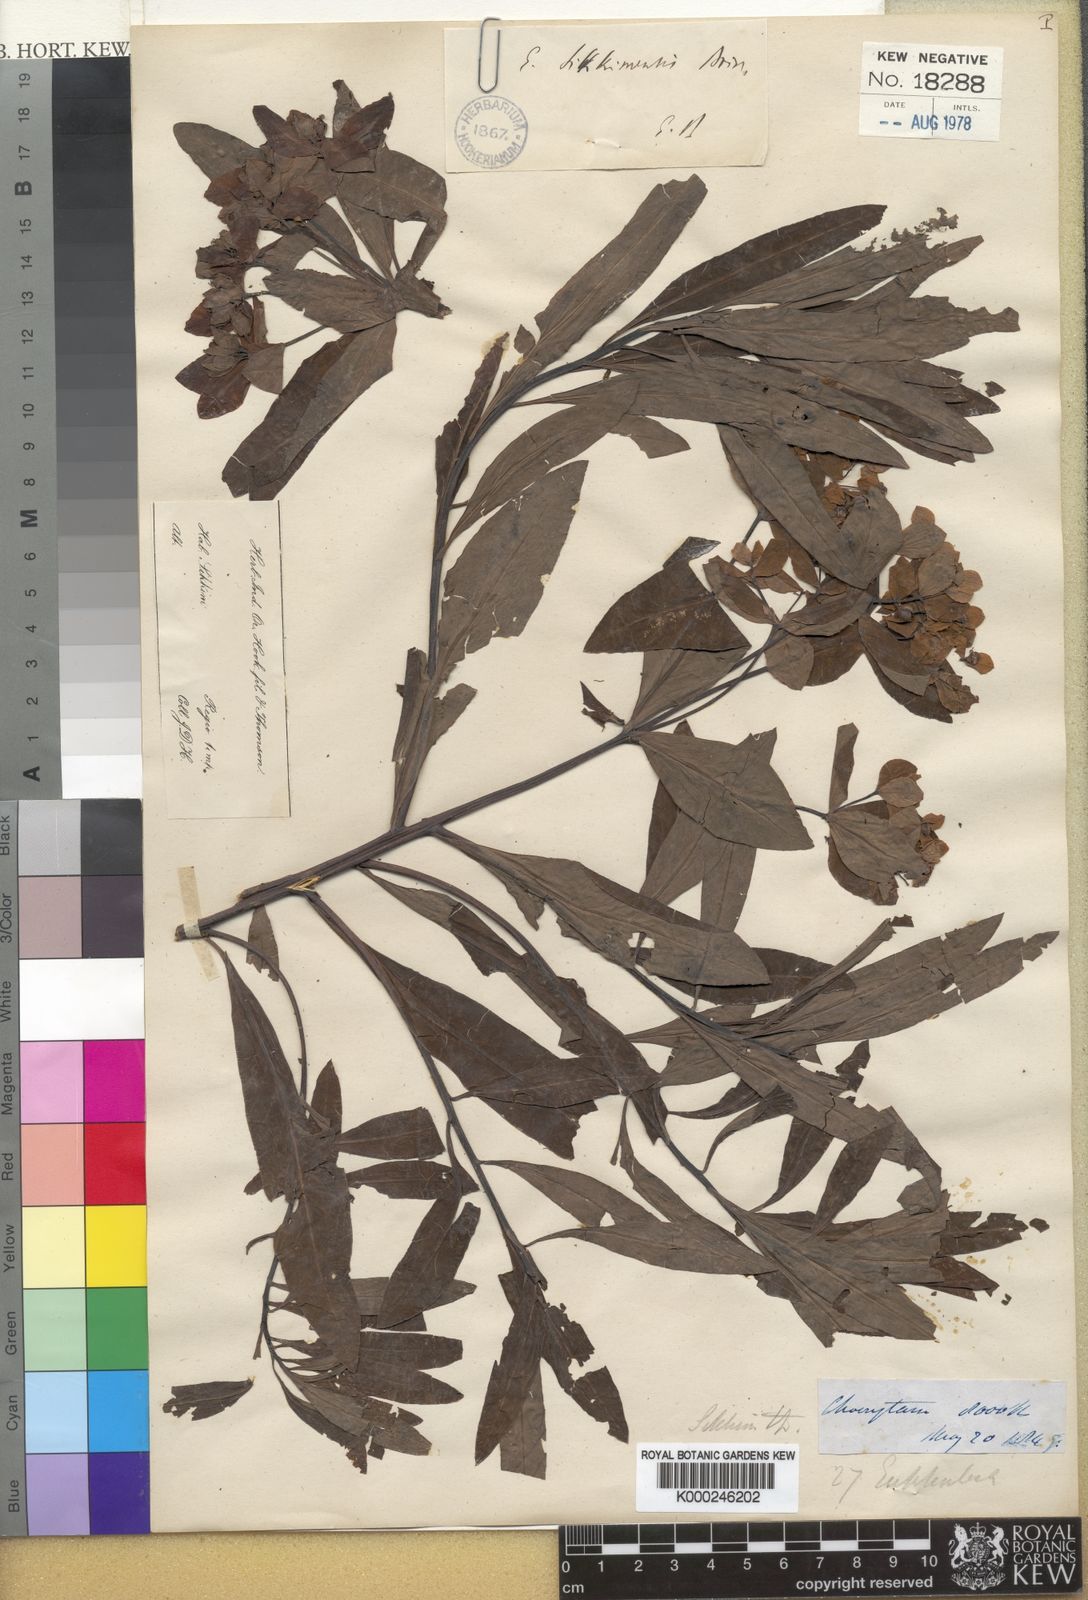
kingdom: Plantae
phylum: Tracheophyta
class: Magnoliopsida
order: Malpighiales
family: Euphorbiaceae
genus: Euphorbia
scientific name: Euphorbia sikkimensis
